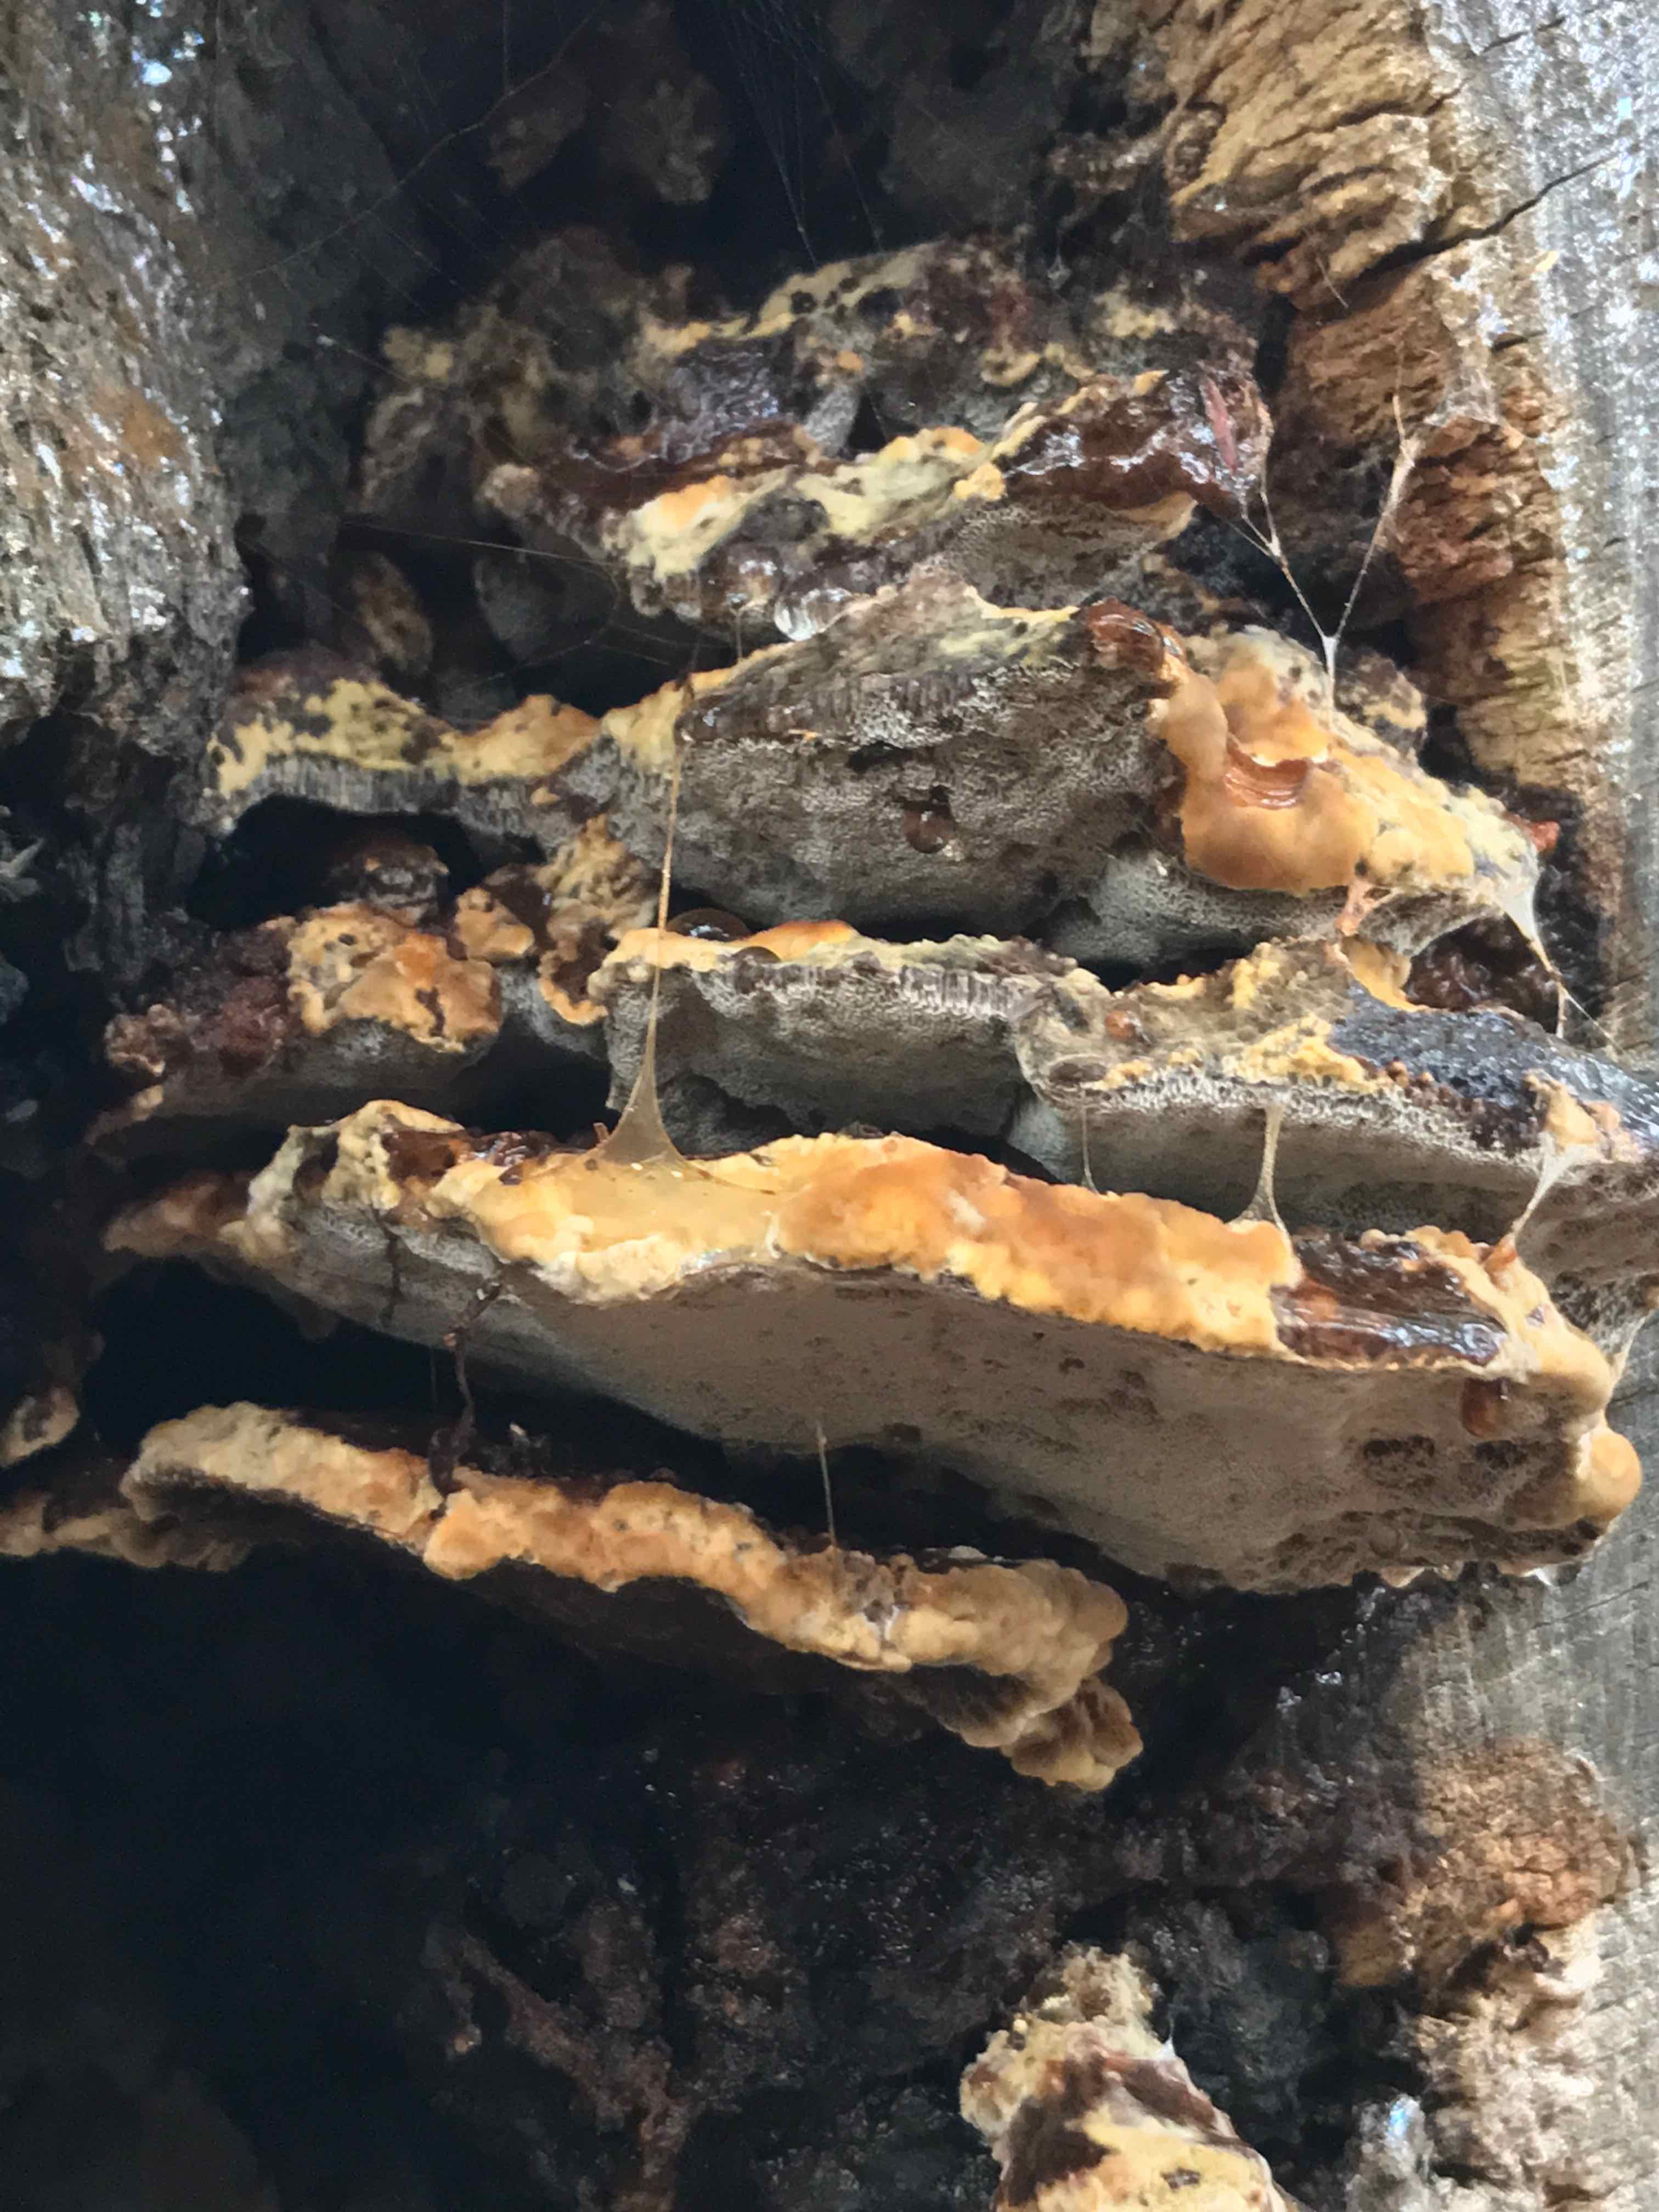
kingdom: Fungi
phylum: Basidiomycota
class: Agaricomycetes
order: Hymenochaetales
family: Hymenochaetaceae
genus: Mensularia
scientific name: Mensularia nodulosa
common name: bøge-spejlporesvamp
